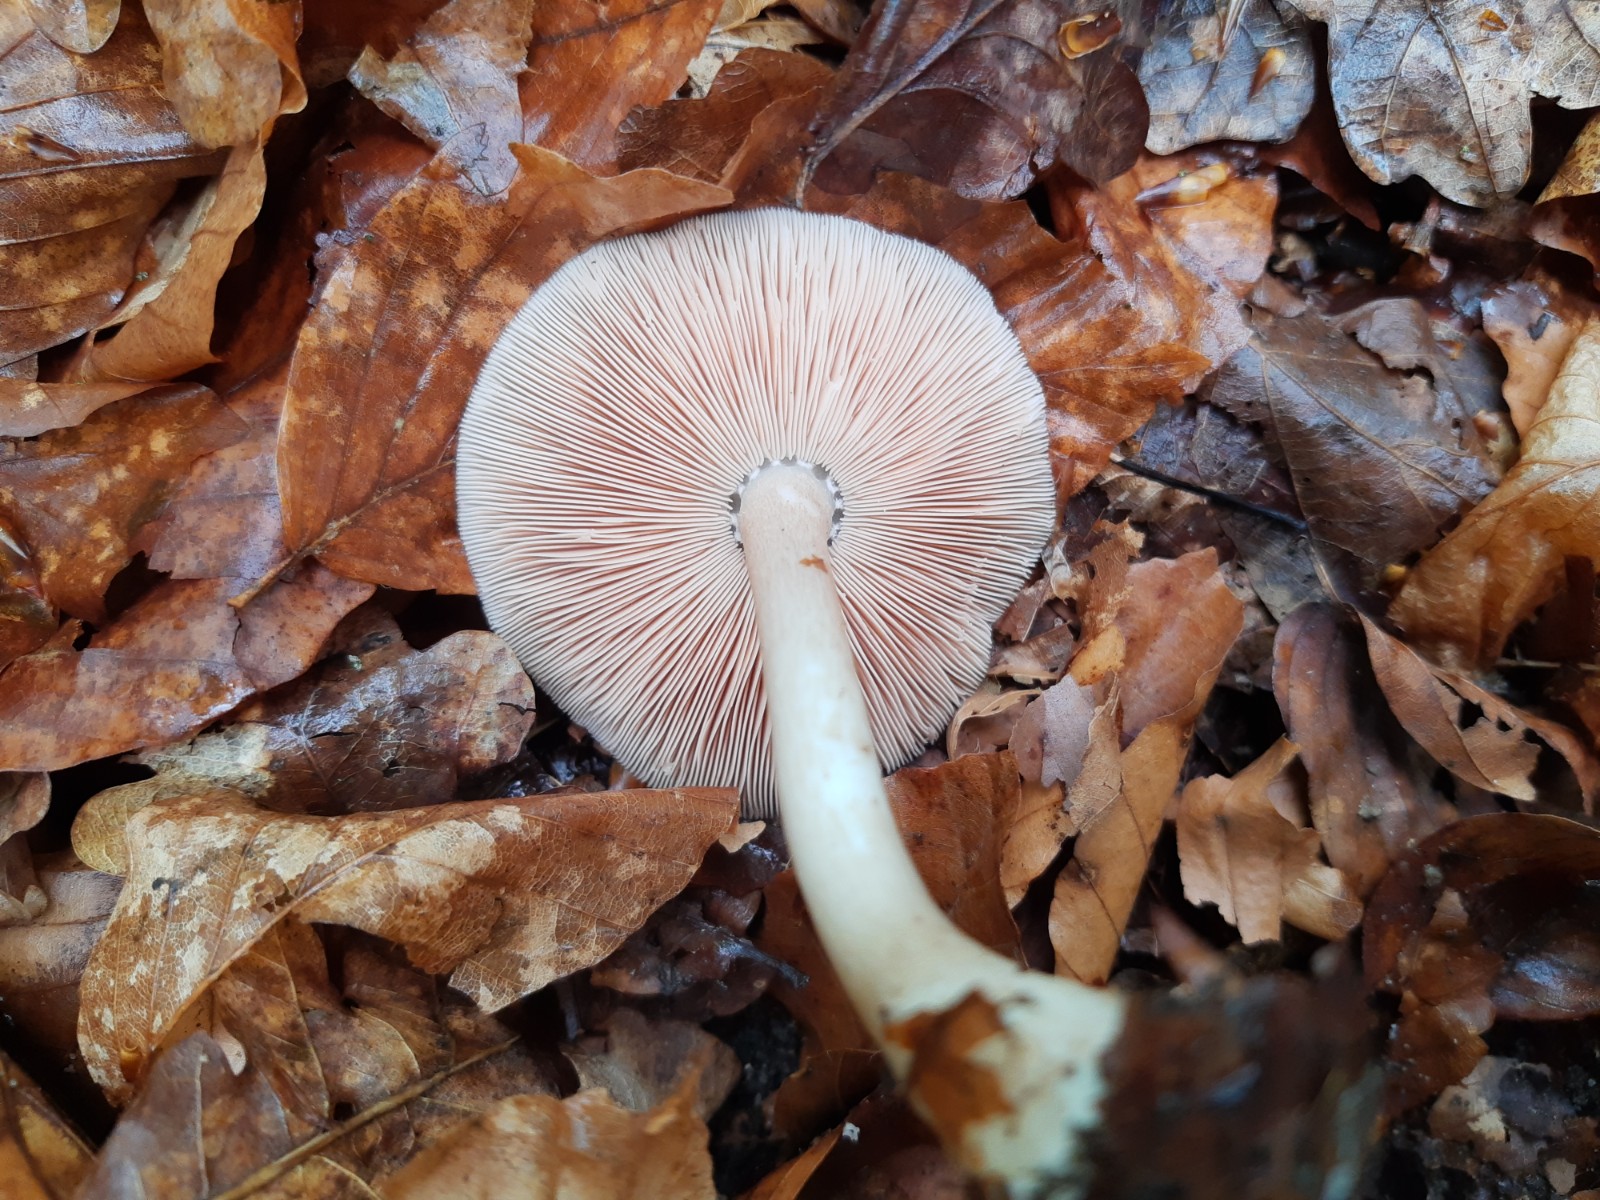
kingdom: Fungi
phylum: Basidiomycota
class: Agaricomycetes
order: Agaricales
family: Pluteaceae
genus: Pluteus
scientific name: Pluteus cervinus
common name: sodfarvet skærmhat
